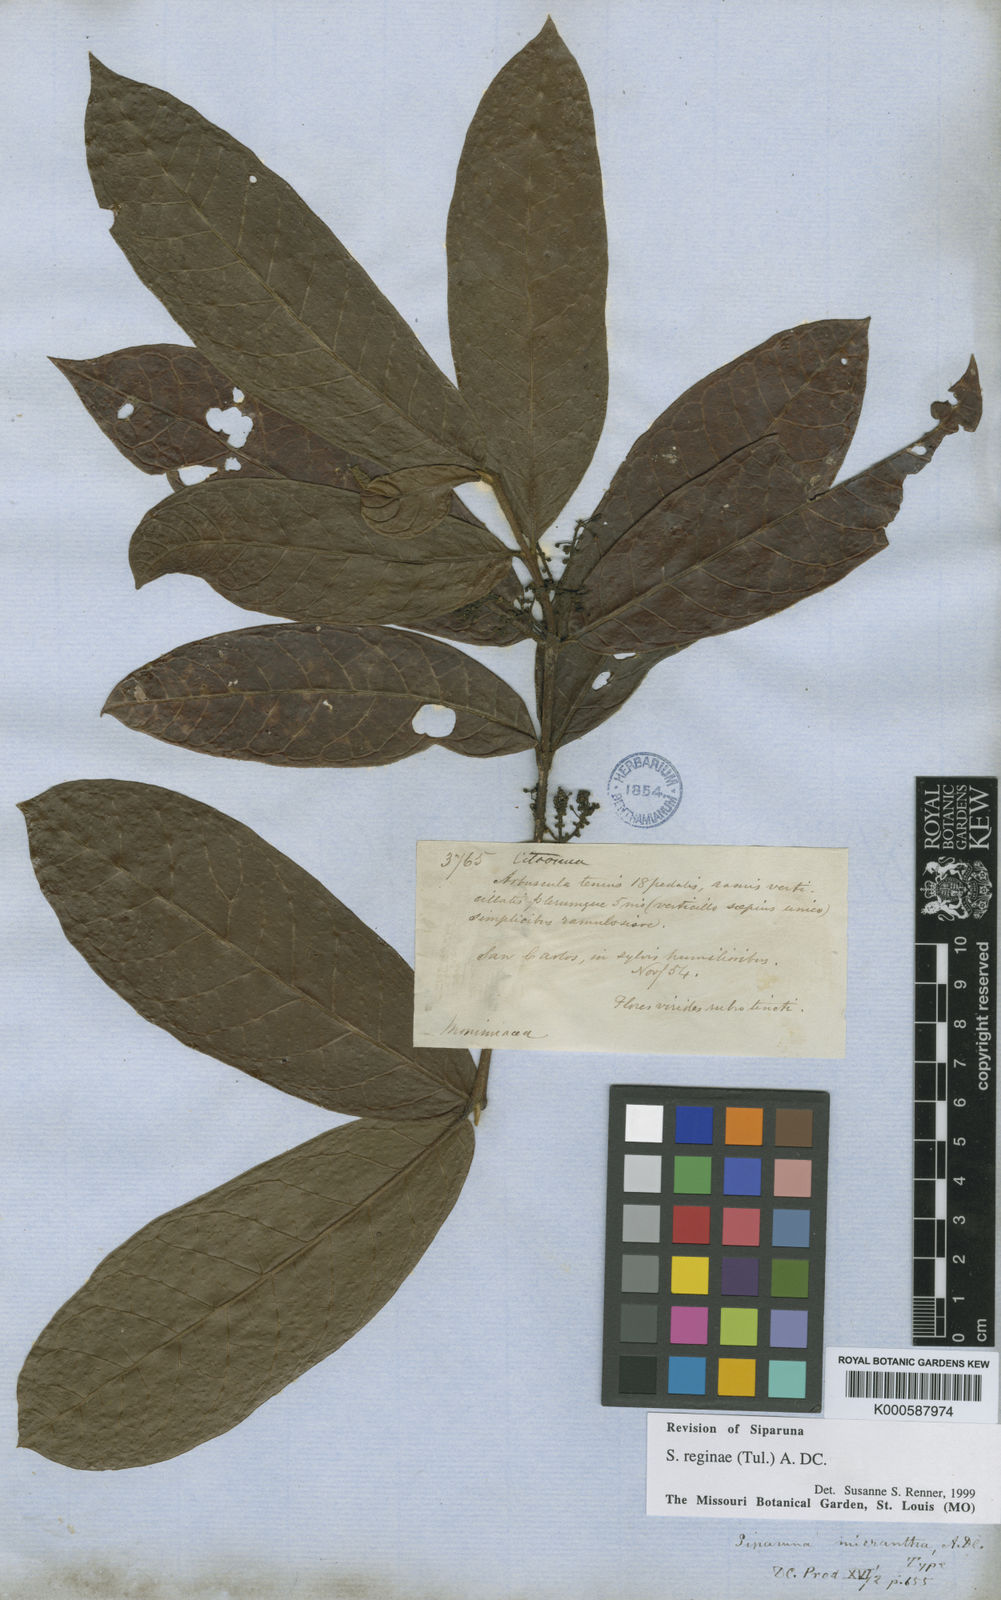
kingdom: Plantae
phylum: Tracheophyta
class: Magnoliopsida
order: Laurales
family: Siparunaceae
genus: Siparuna
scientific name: Siparuna reginae
